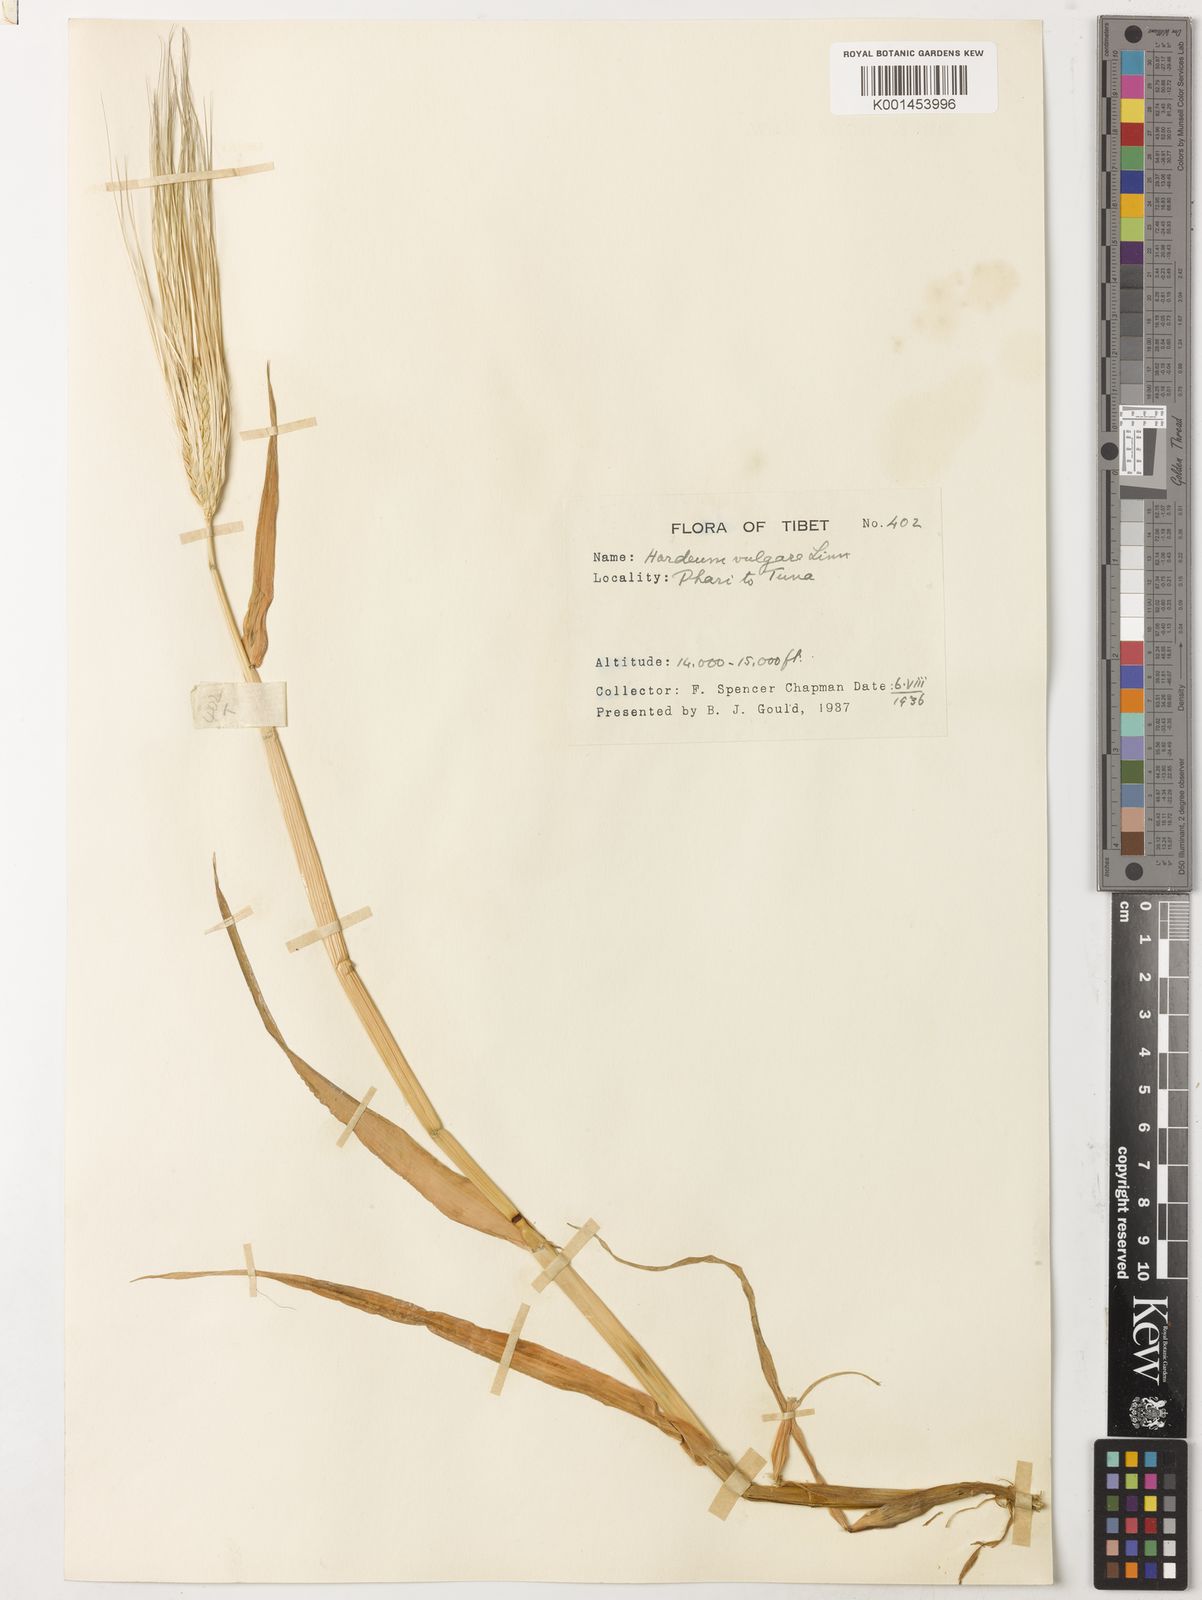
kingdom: Plantae
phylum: Tracheophyta
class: Liliopsida
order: Poales
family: Poaceae
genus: Hordeum
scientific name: Hordeum vulgare
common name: Common barley
